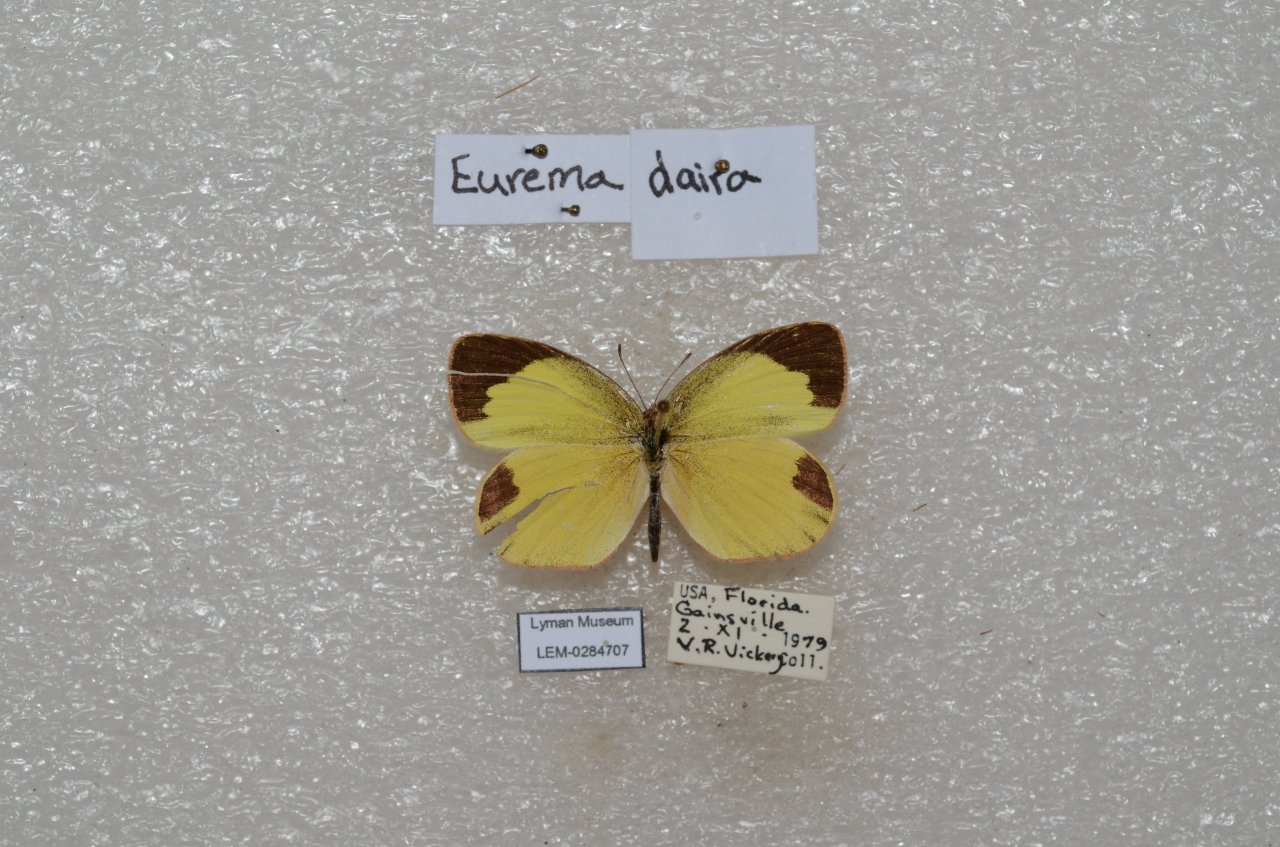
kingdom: Animalia
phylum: Arthropoda
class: Insecta
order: Lepidoptera
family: Pieridae
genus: Eurema
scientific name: Eurema daira
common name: Barred Yellow
